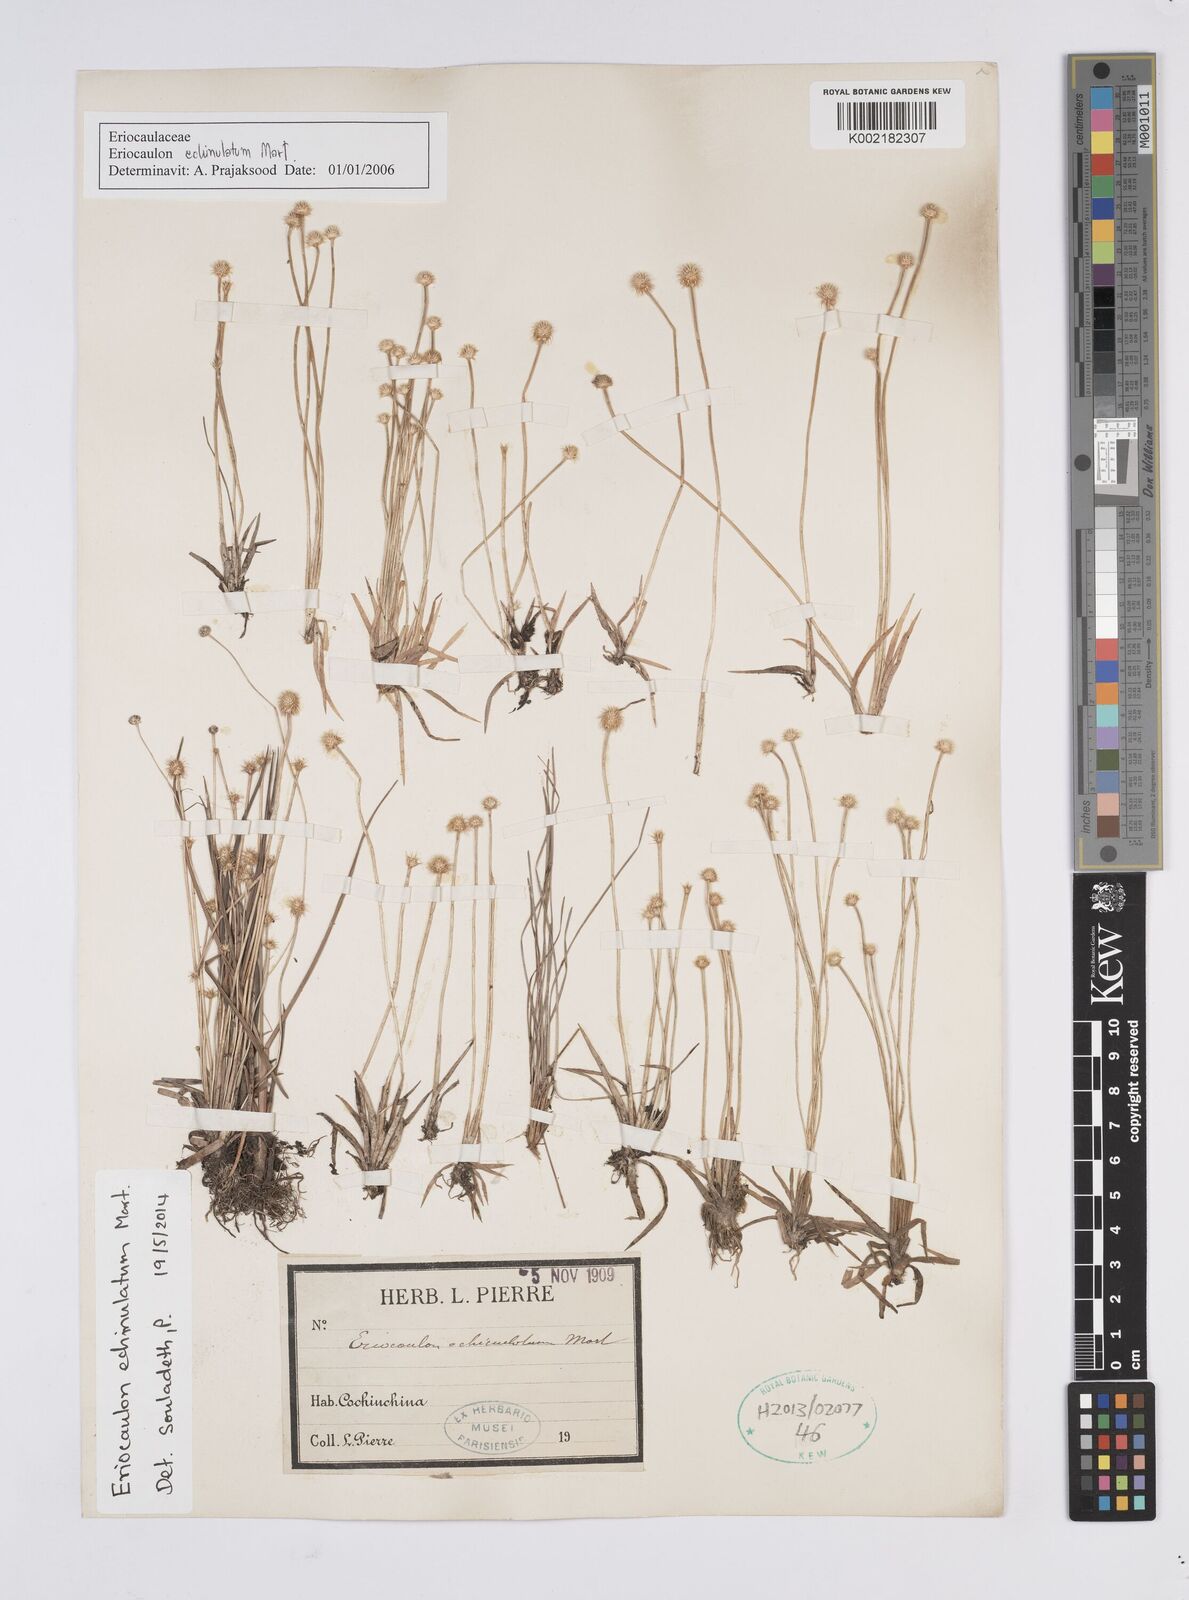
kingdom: Plantae
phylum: Tracheophyta
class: Liliopsida
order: Poales
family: Eriocaulaceae
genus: Eriocaulon
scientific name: Eriocaulon echinulatum
